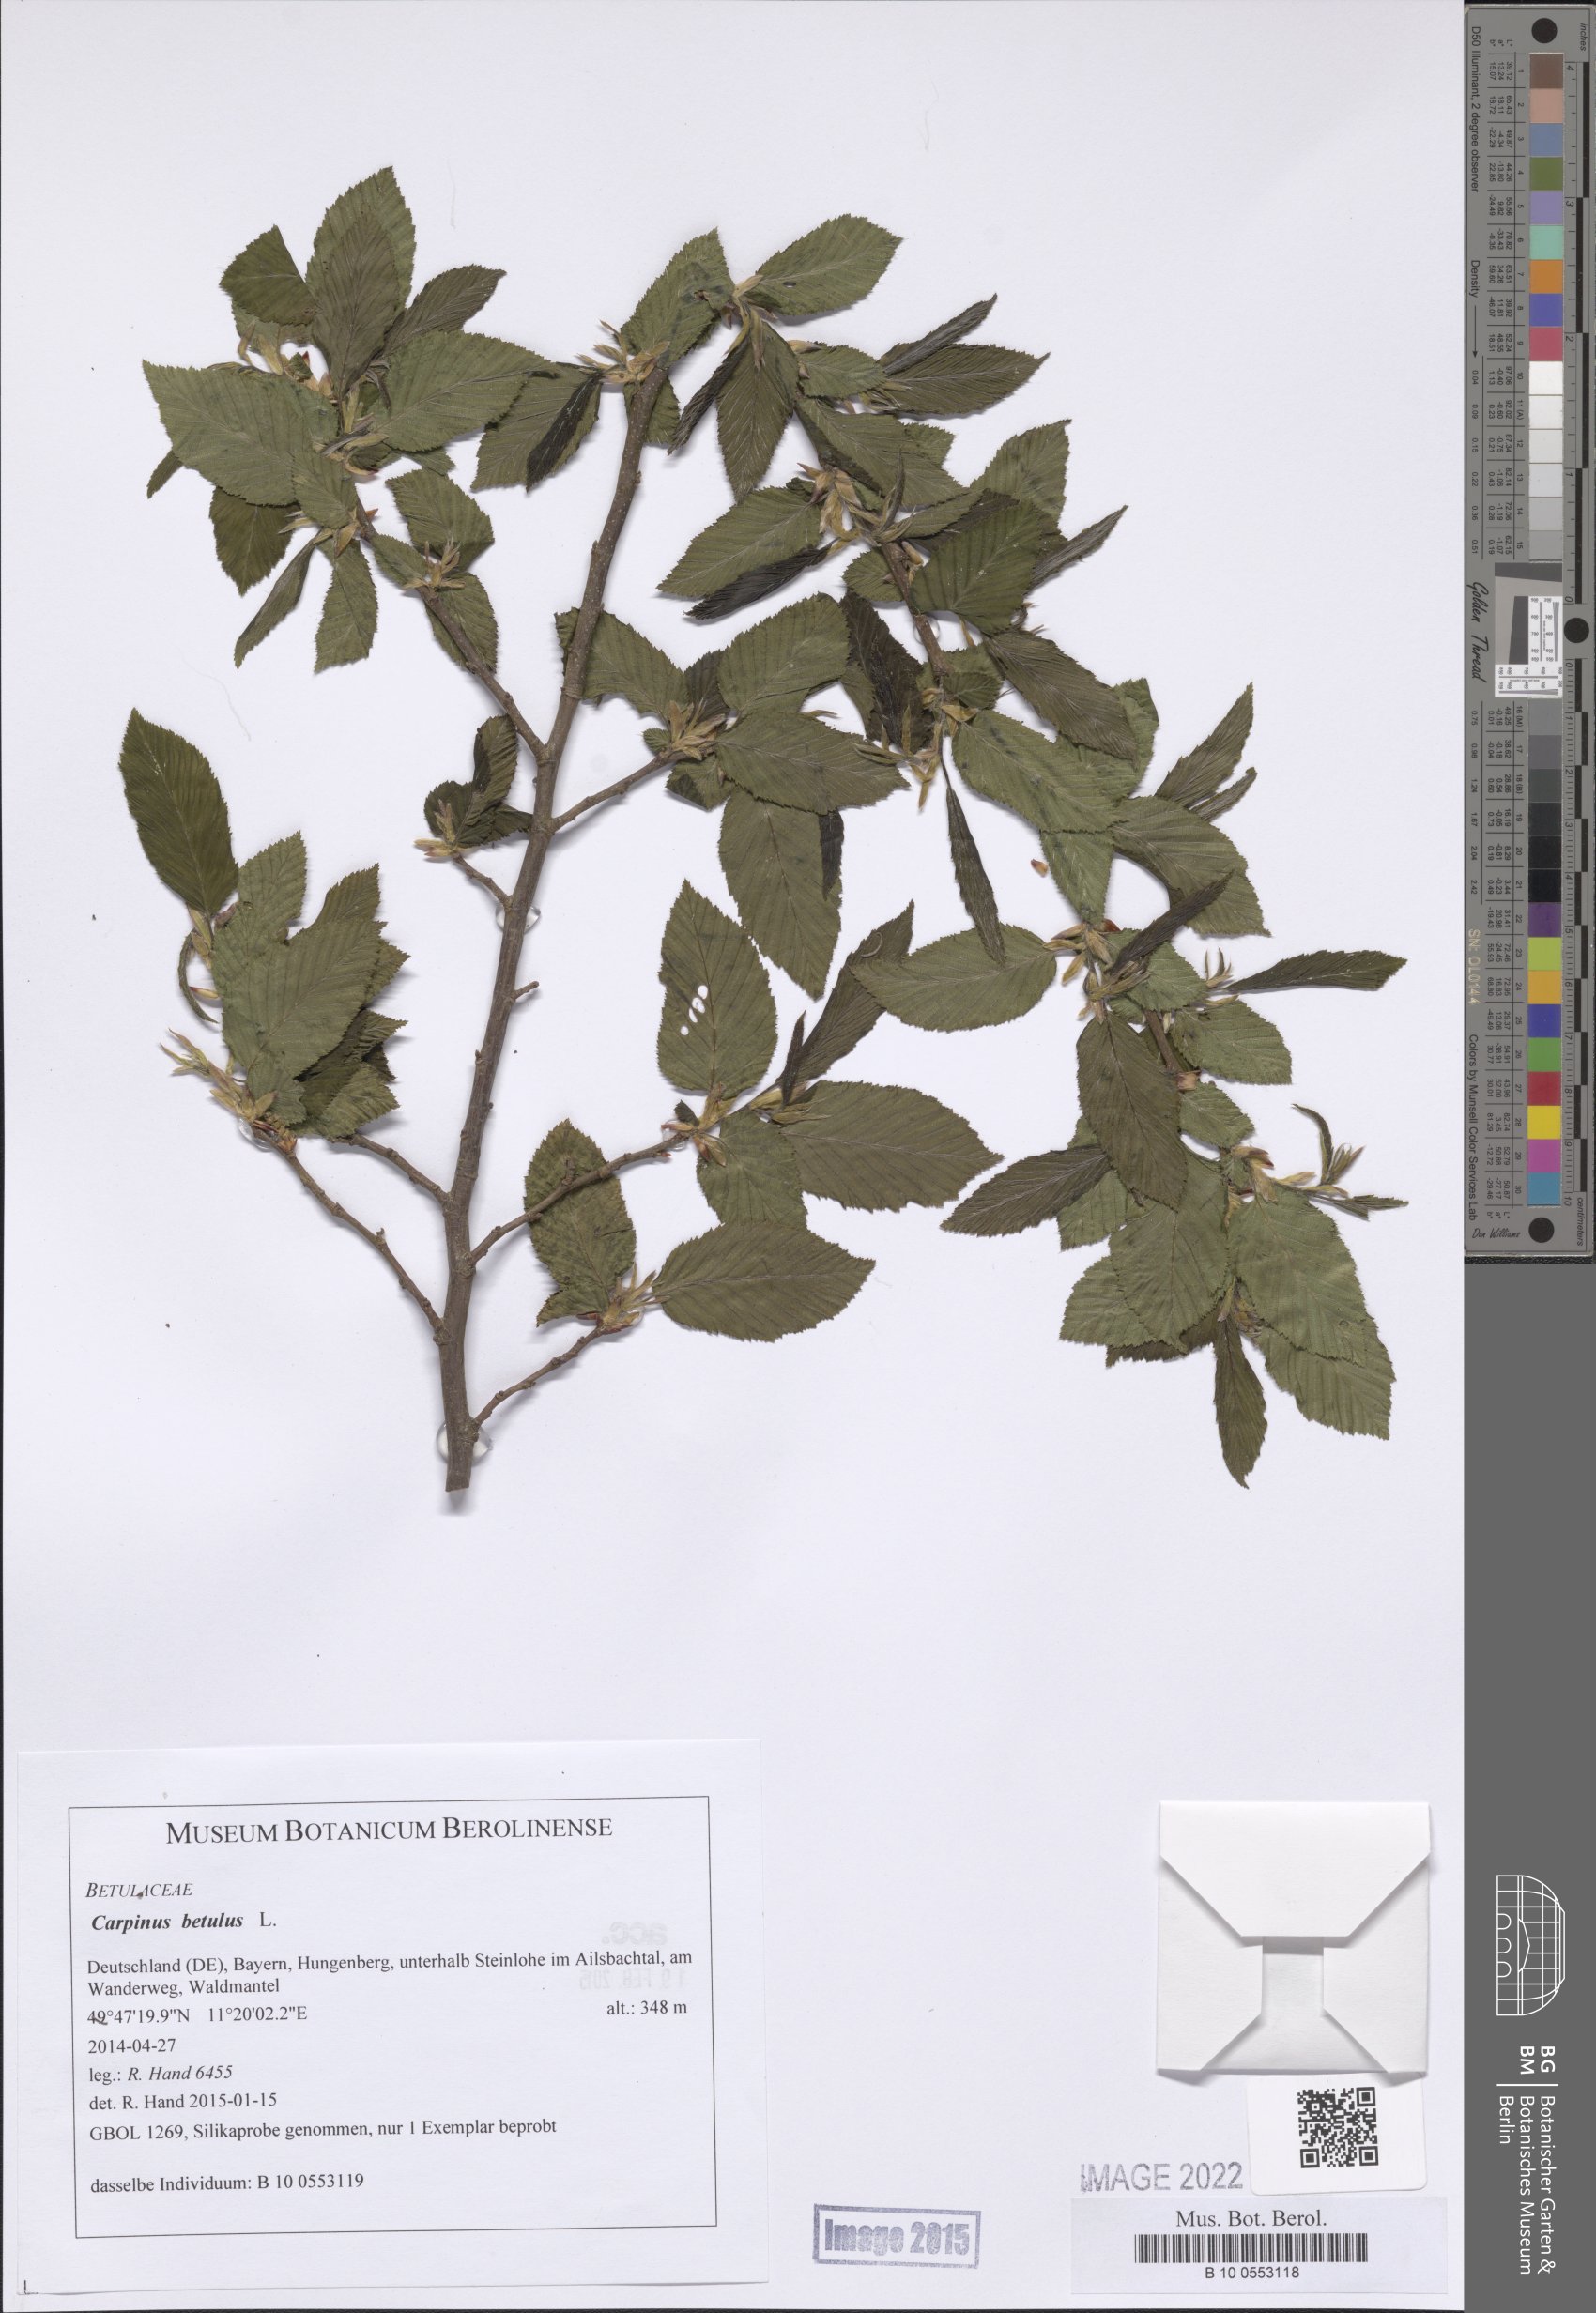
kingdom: Plantae
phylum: Tracheophyta
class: Magnoliopsida
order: Fagales
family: Betulaceae
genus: Carpinus
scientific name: Carpinus betulus
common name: Hornbeam
